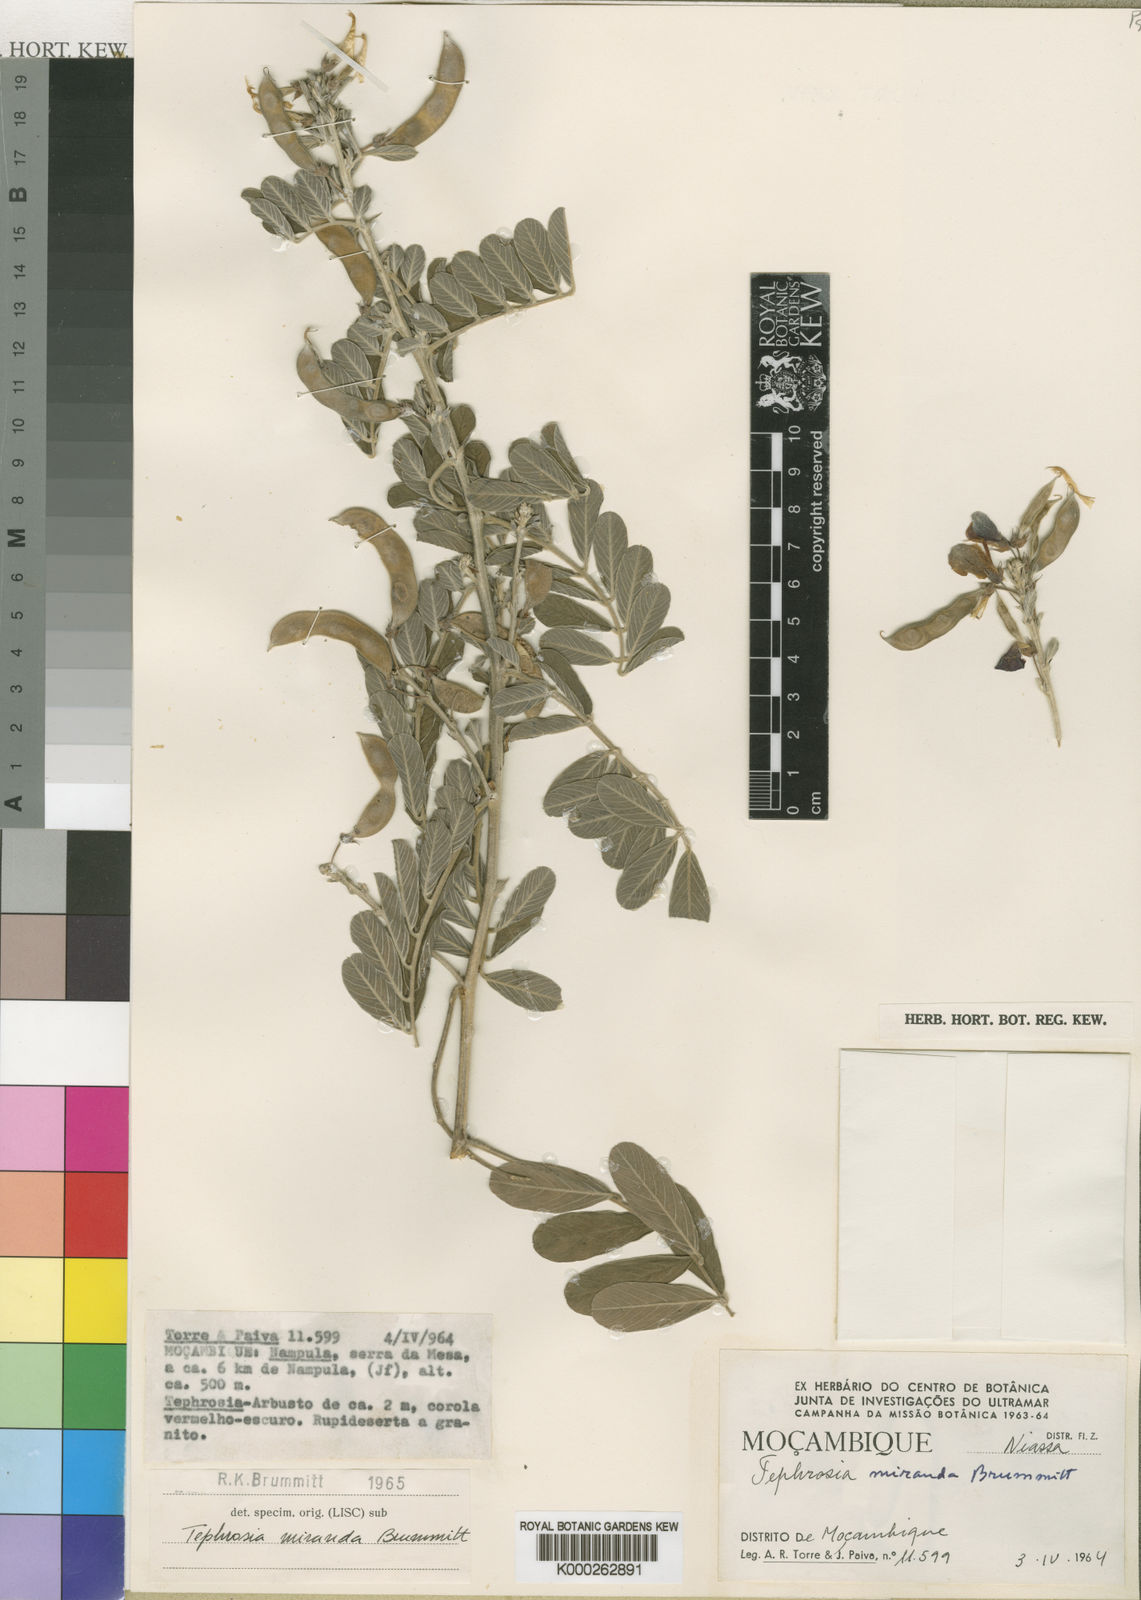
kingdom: Plantae
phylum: Tracheophyta
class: Magnoliopsida
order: Fabales
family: Fabaceae
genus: Tephrosia
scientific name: Tephrosia miranda
